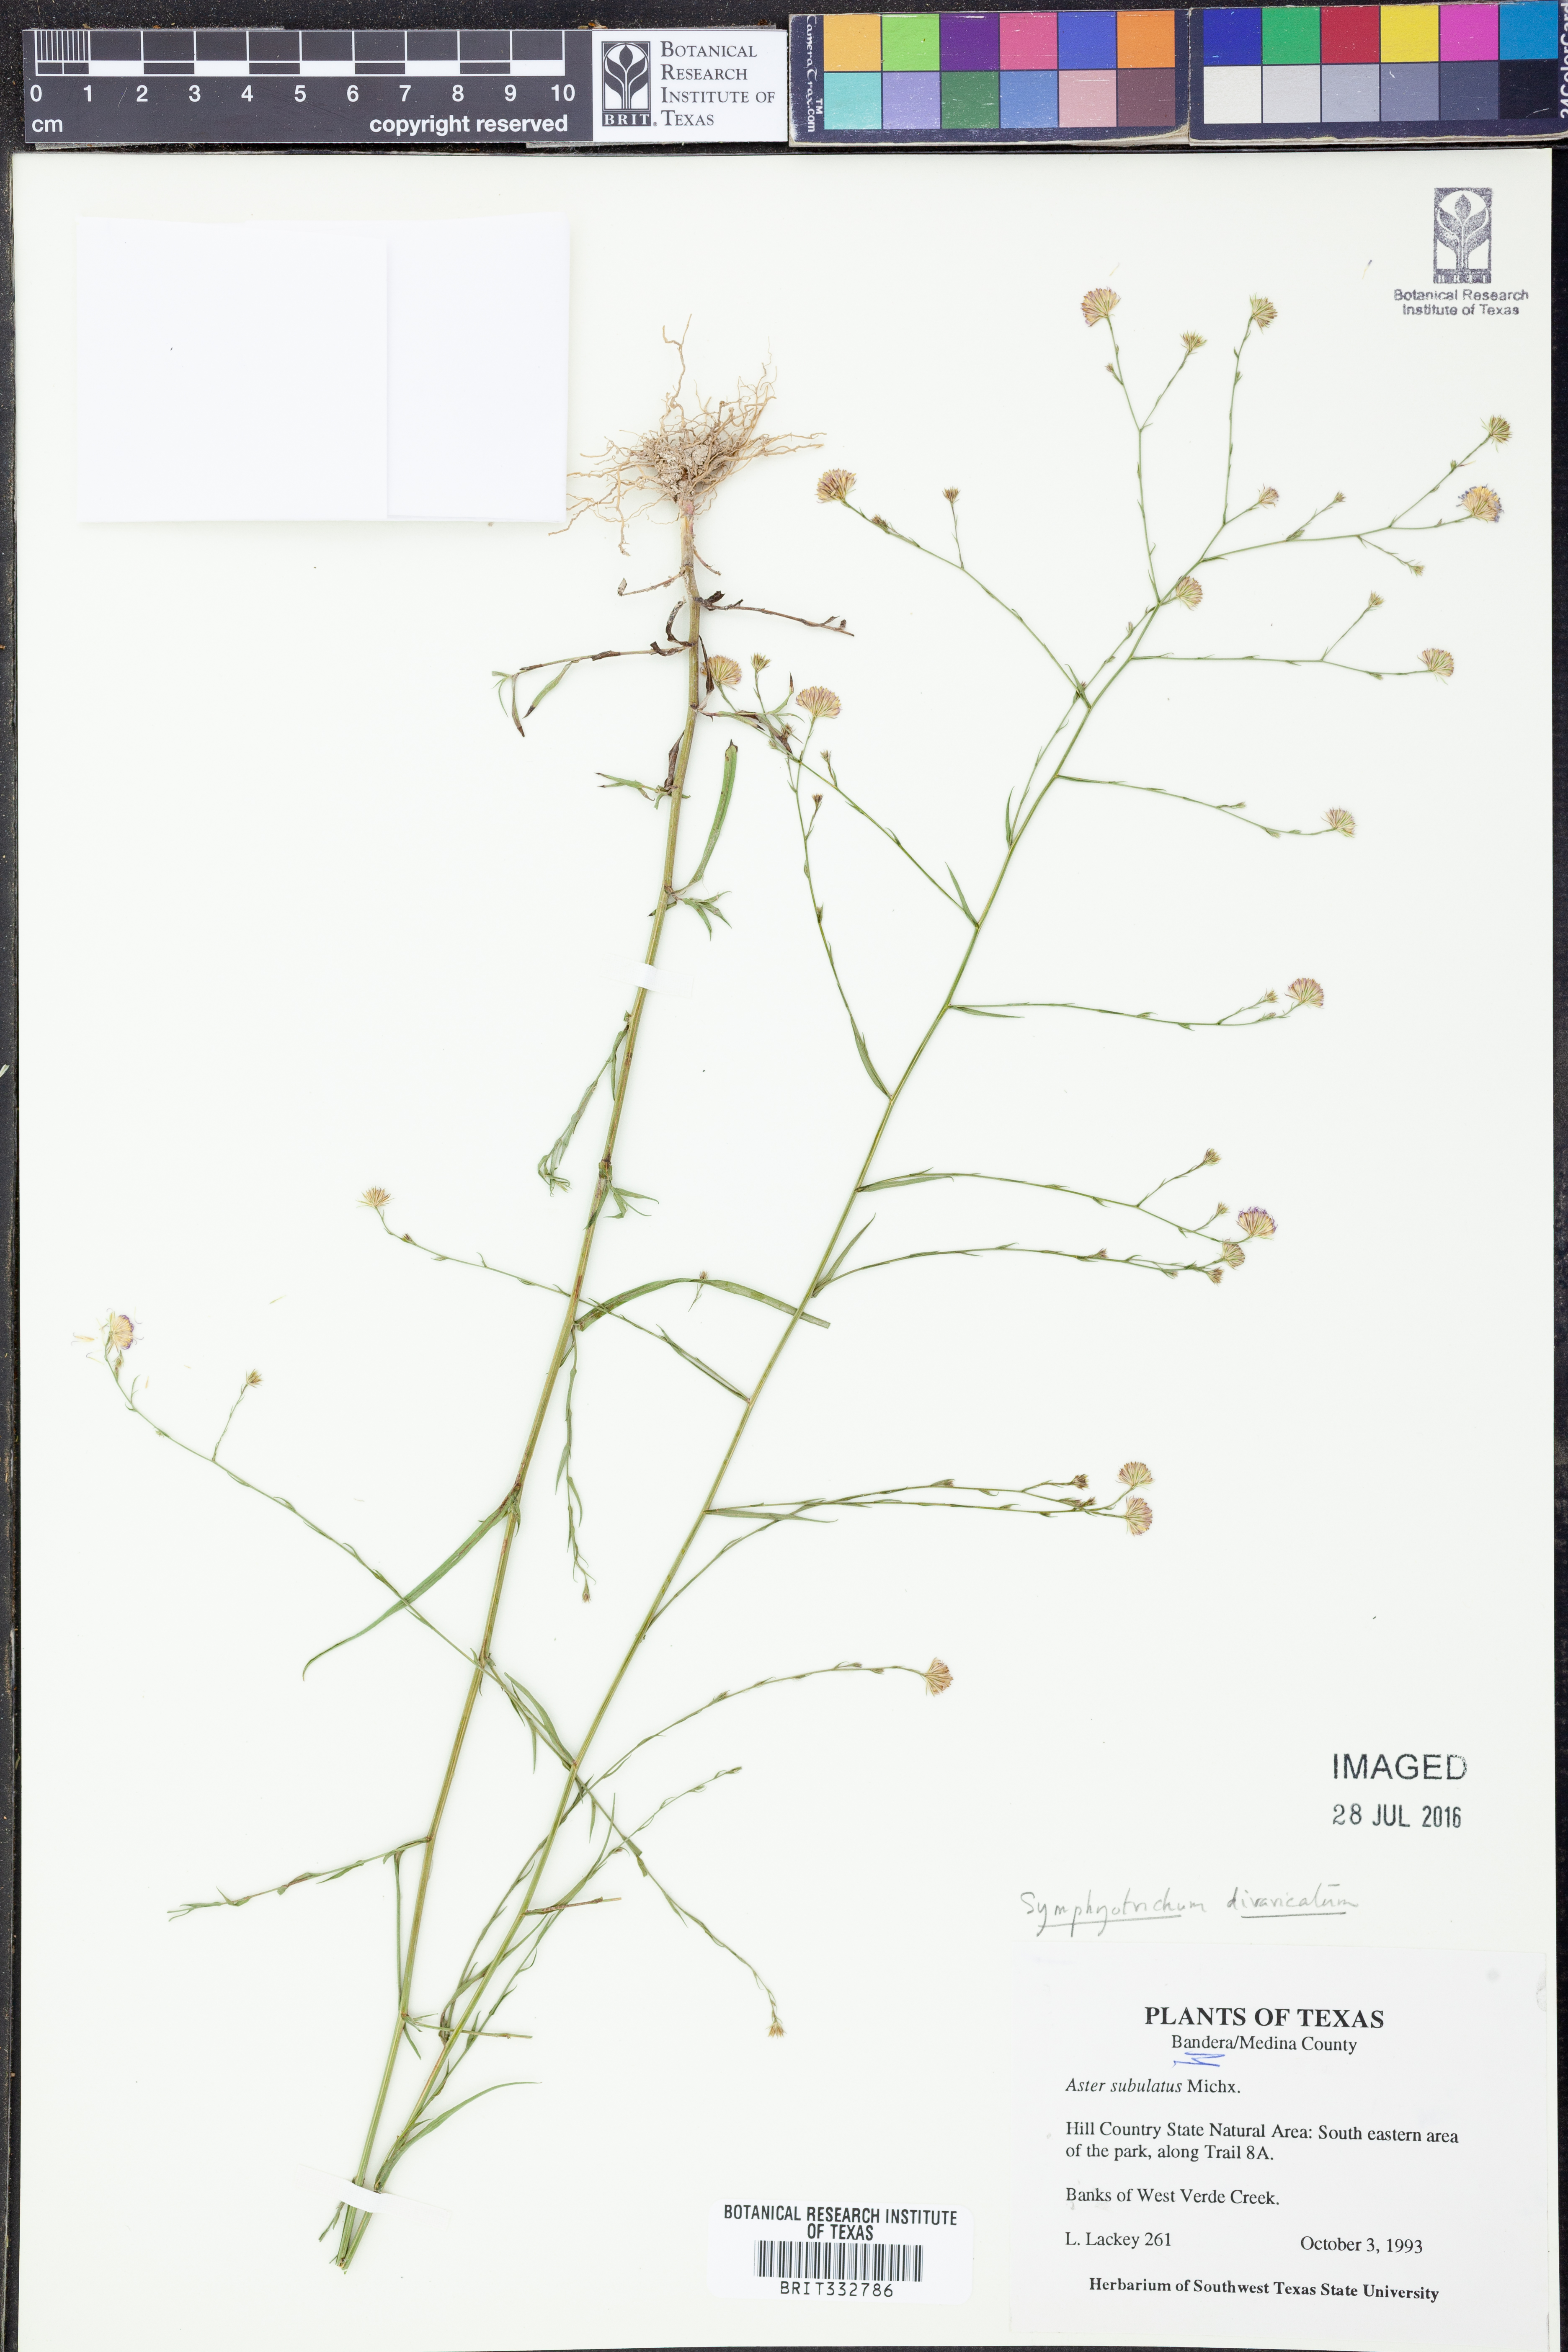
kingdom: Plantae
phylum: Tracheophyta
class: Magnoliopsida
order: Asterales
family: Asteraceae
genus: Symphyotrichum
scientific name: Symphyotrichum divaricatum
